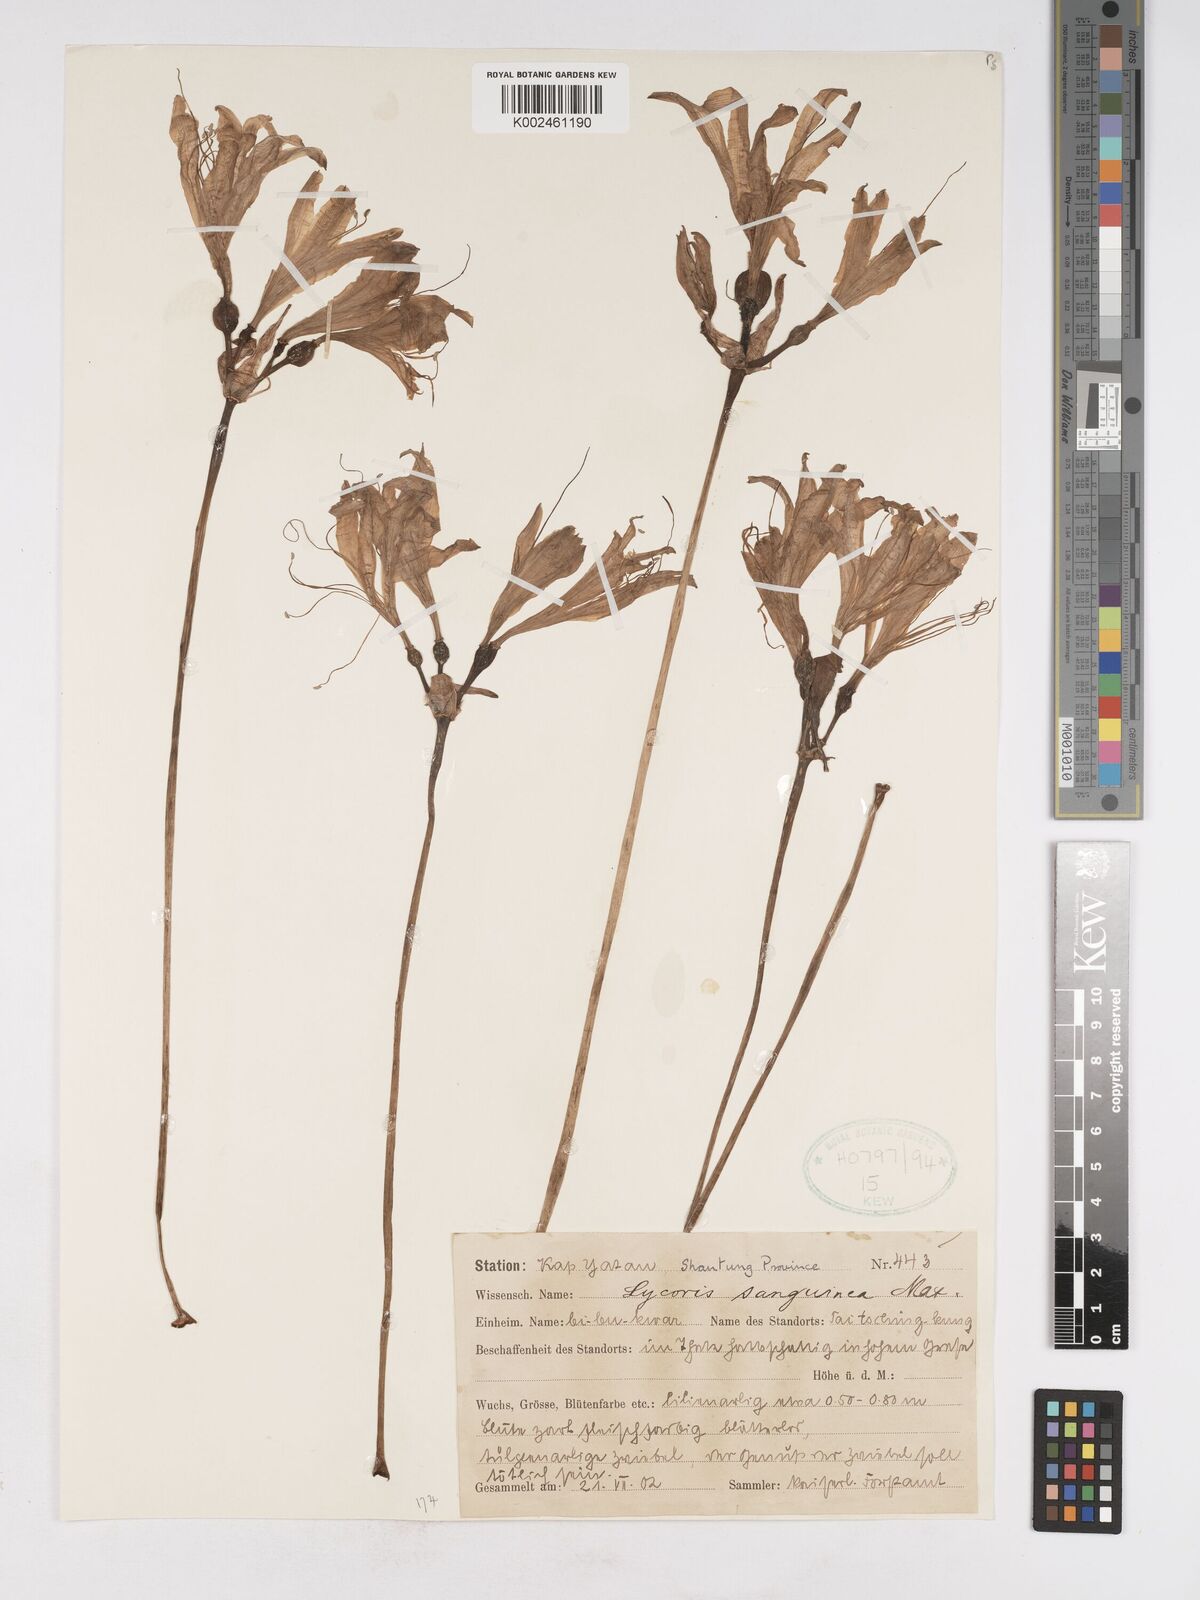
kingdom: Plantae
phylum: Tracheophyta
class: Liliopsida
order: Asparagales
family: Amaryllidaceae
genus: Lycoris
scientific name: Lycoris sanguinea
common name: Spider-lily
